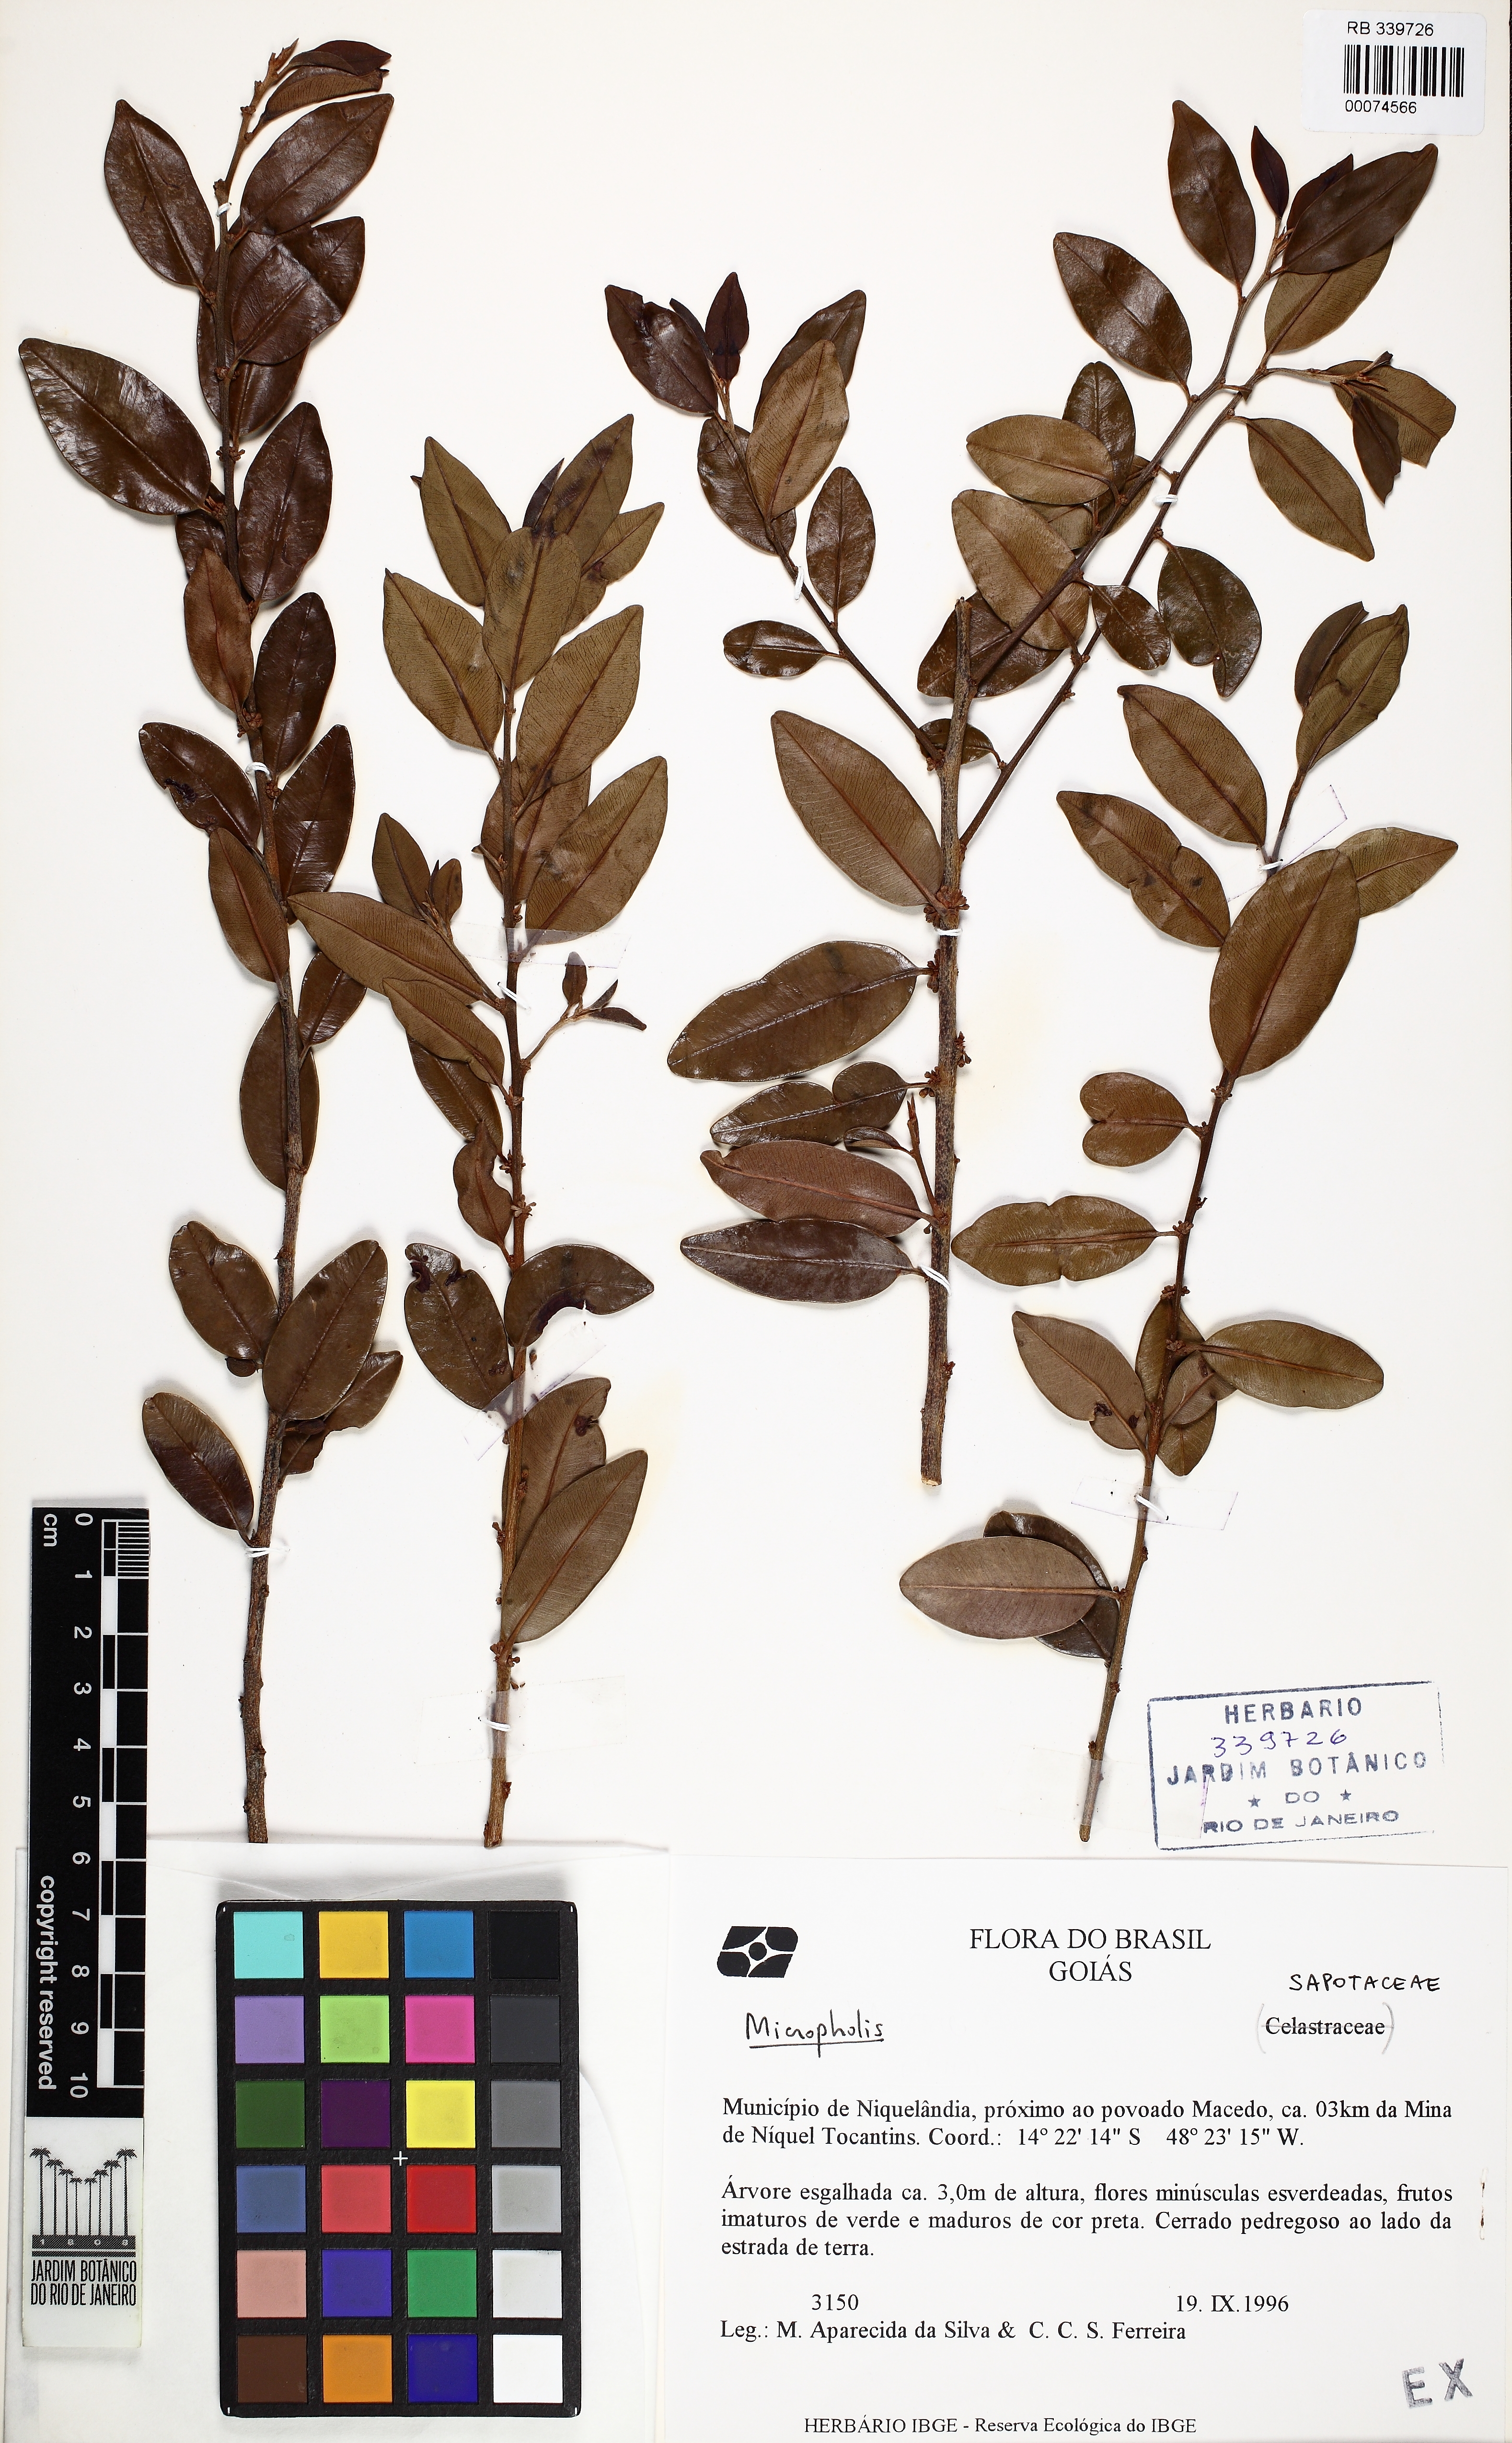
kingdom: Plantae
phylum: Tracheophyta
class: Magnoliopsida
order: Ericales
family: Sapotaceae
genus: Micropholis
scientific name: Micropholis
